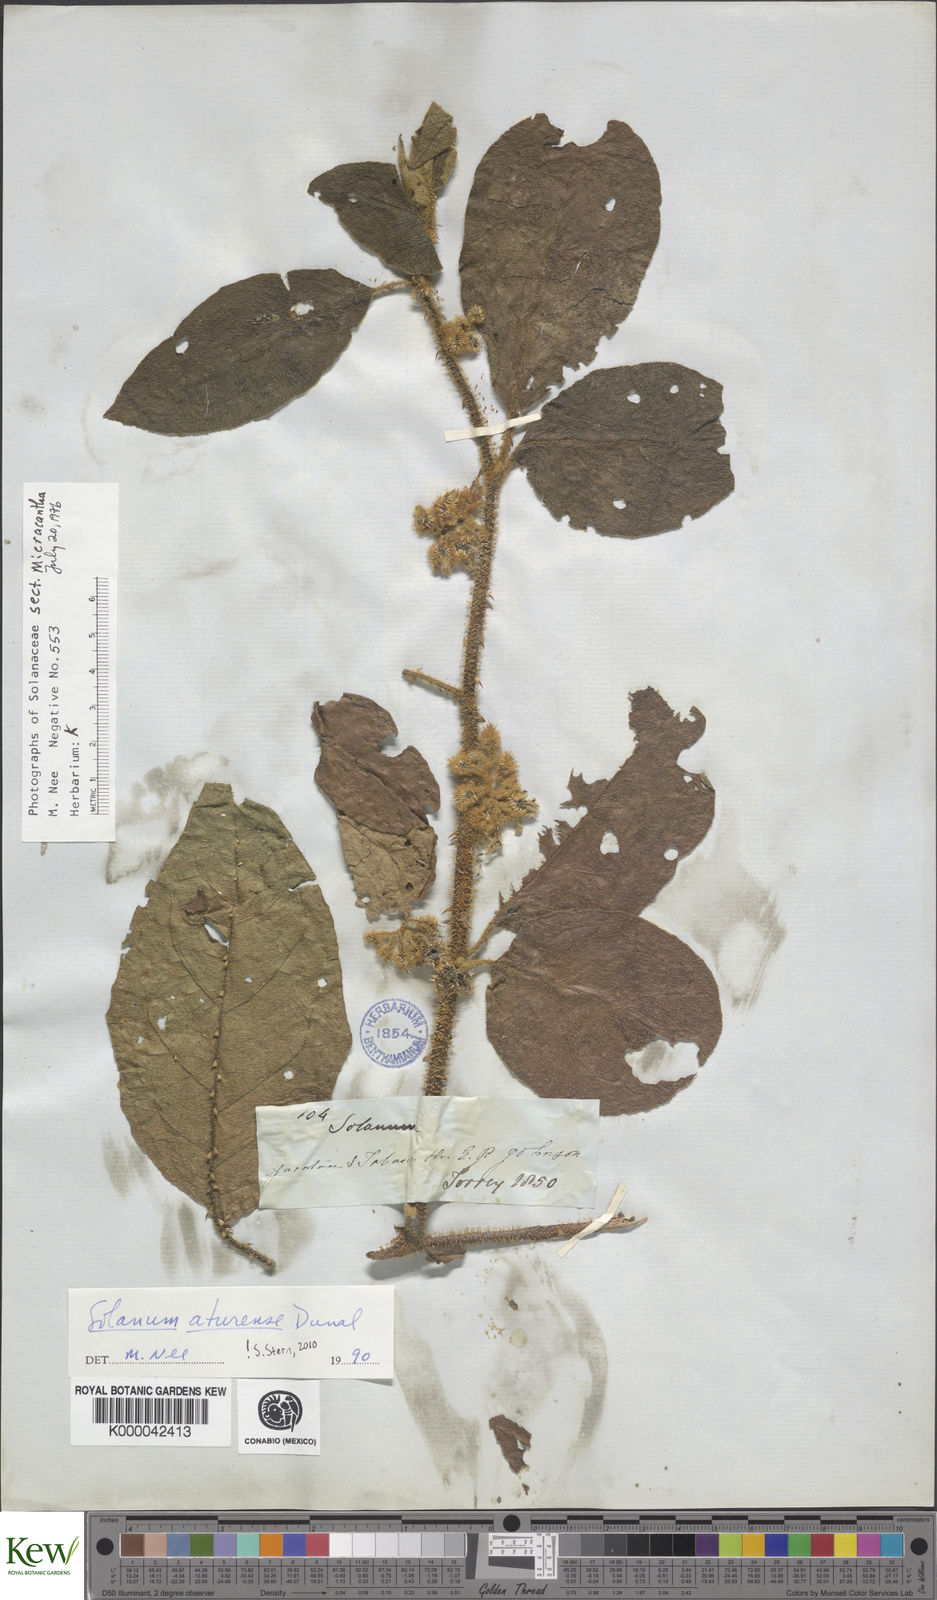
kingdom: Plantae
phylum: Tracheophyta
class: Magnoliopsida
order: Solanales
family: Solanaceae
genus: Solanum
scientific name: Solanum aturense
